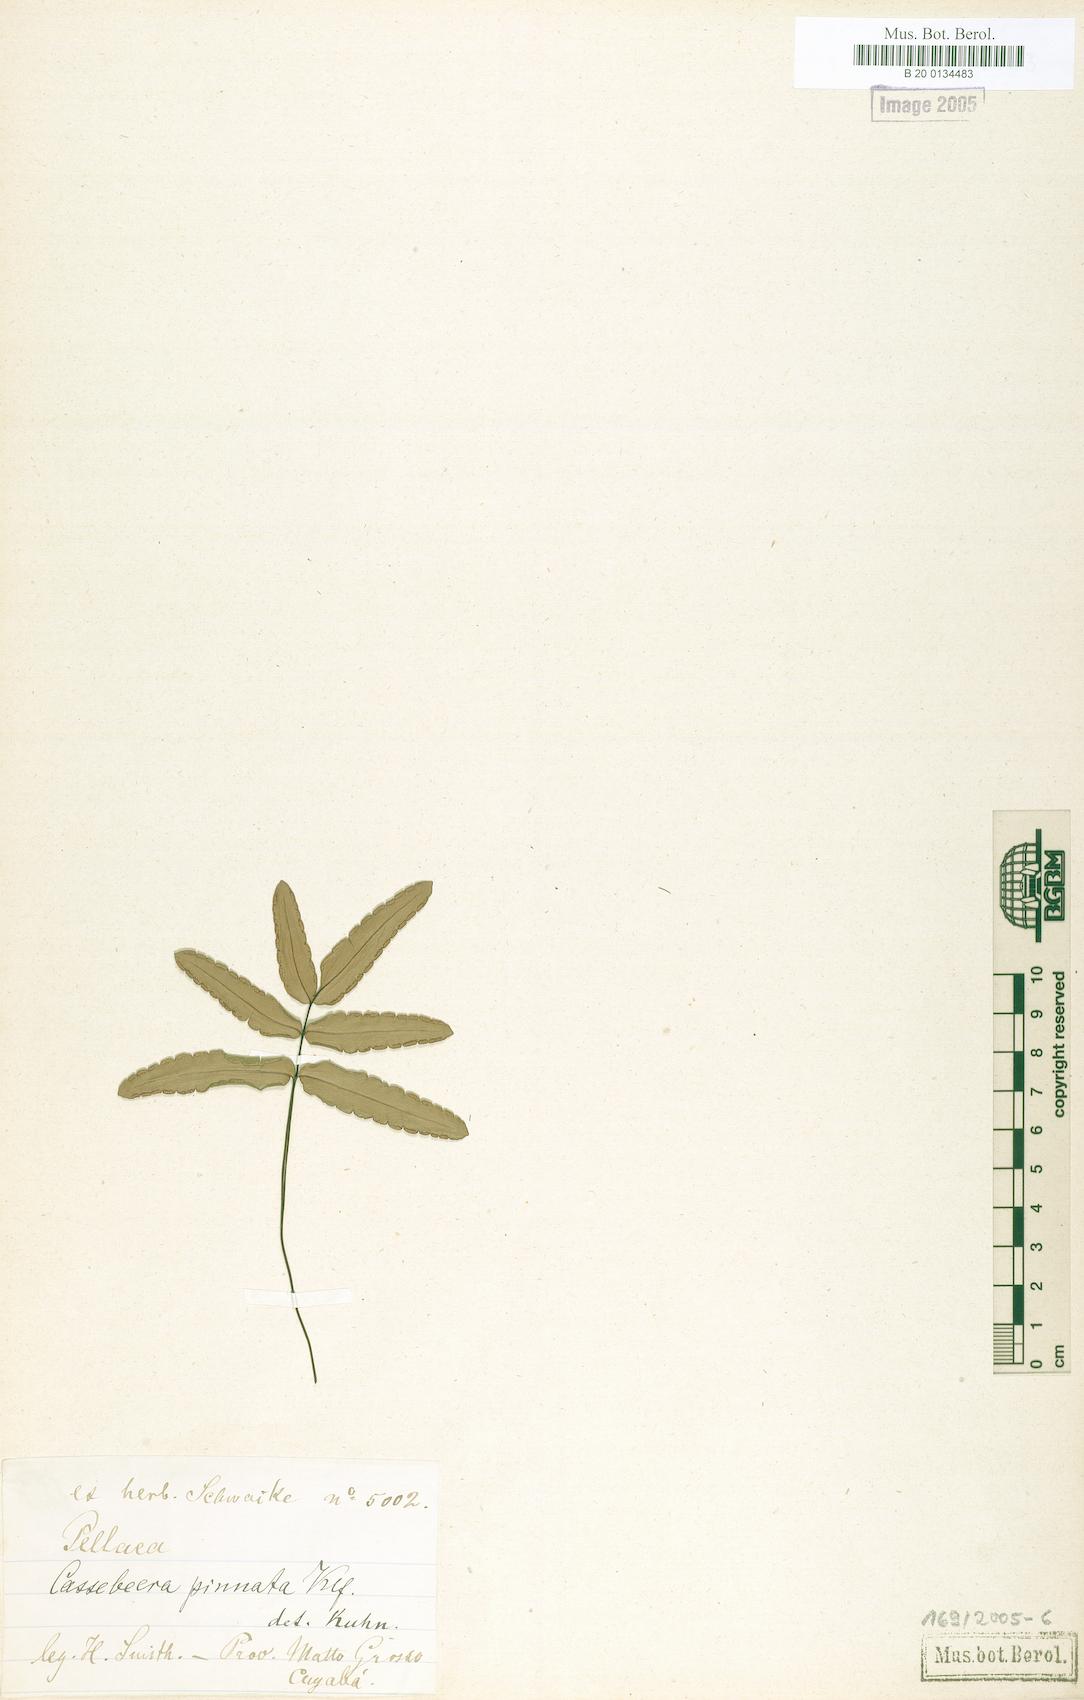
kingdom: Plantae
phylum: Tracheophyta
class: Polypodiopsida
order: Polypodiales
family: Pteridaceae
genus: Ormopteris
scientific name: Ormopteris pinnata
